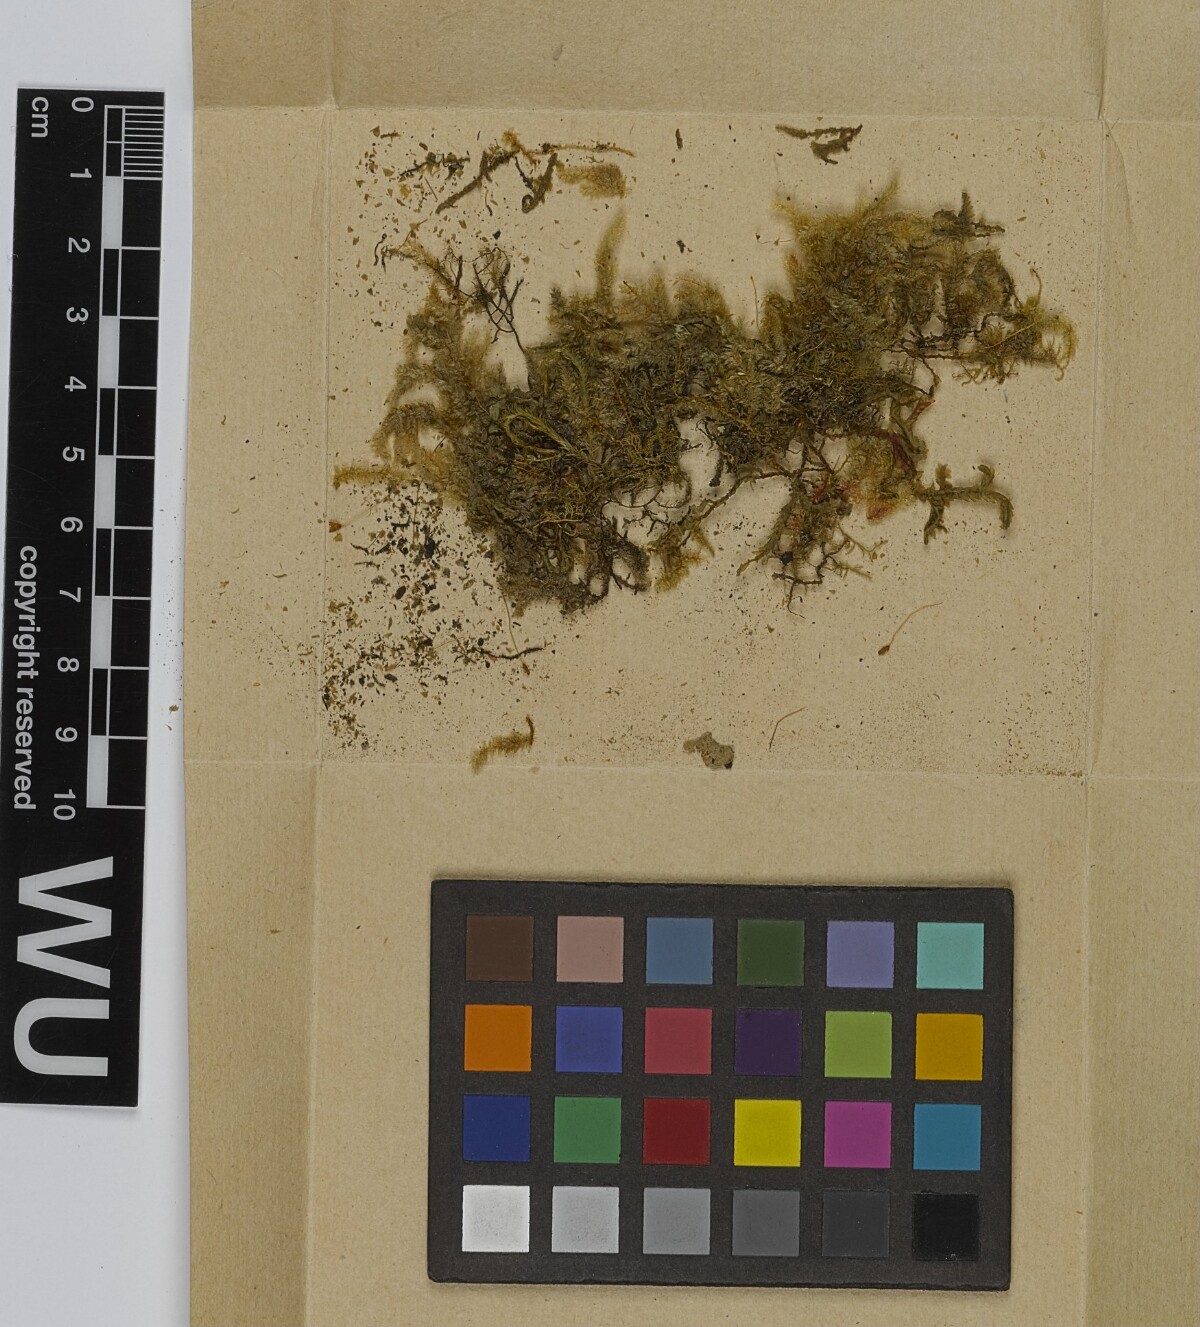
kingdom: Plantae
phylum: Bryophyta
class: Bryopsida
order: Hypnales
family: Lembophyllaceae
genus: Neobarbella
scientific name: Neobarbella comes
